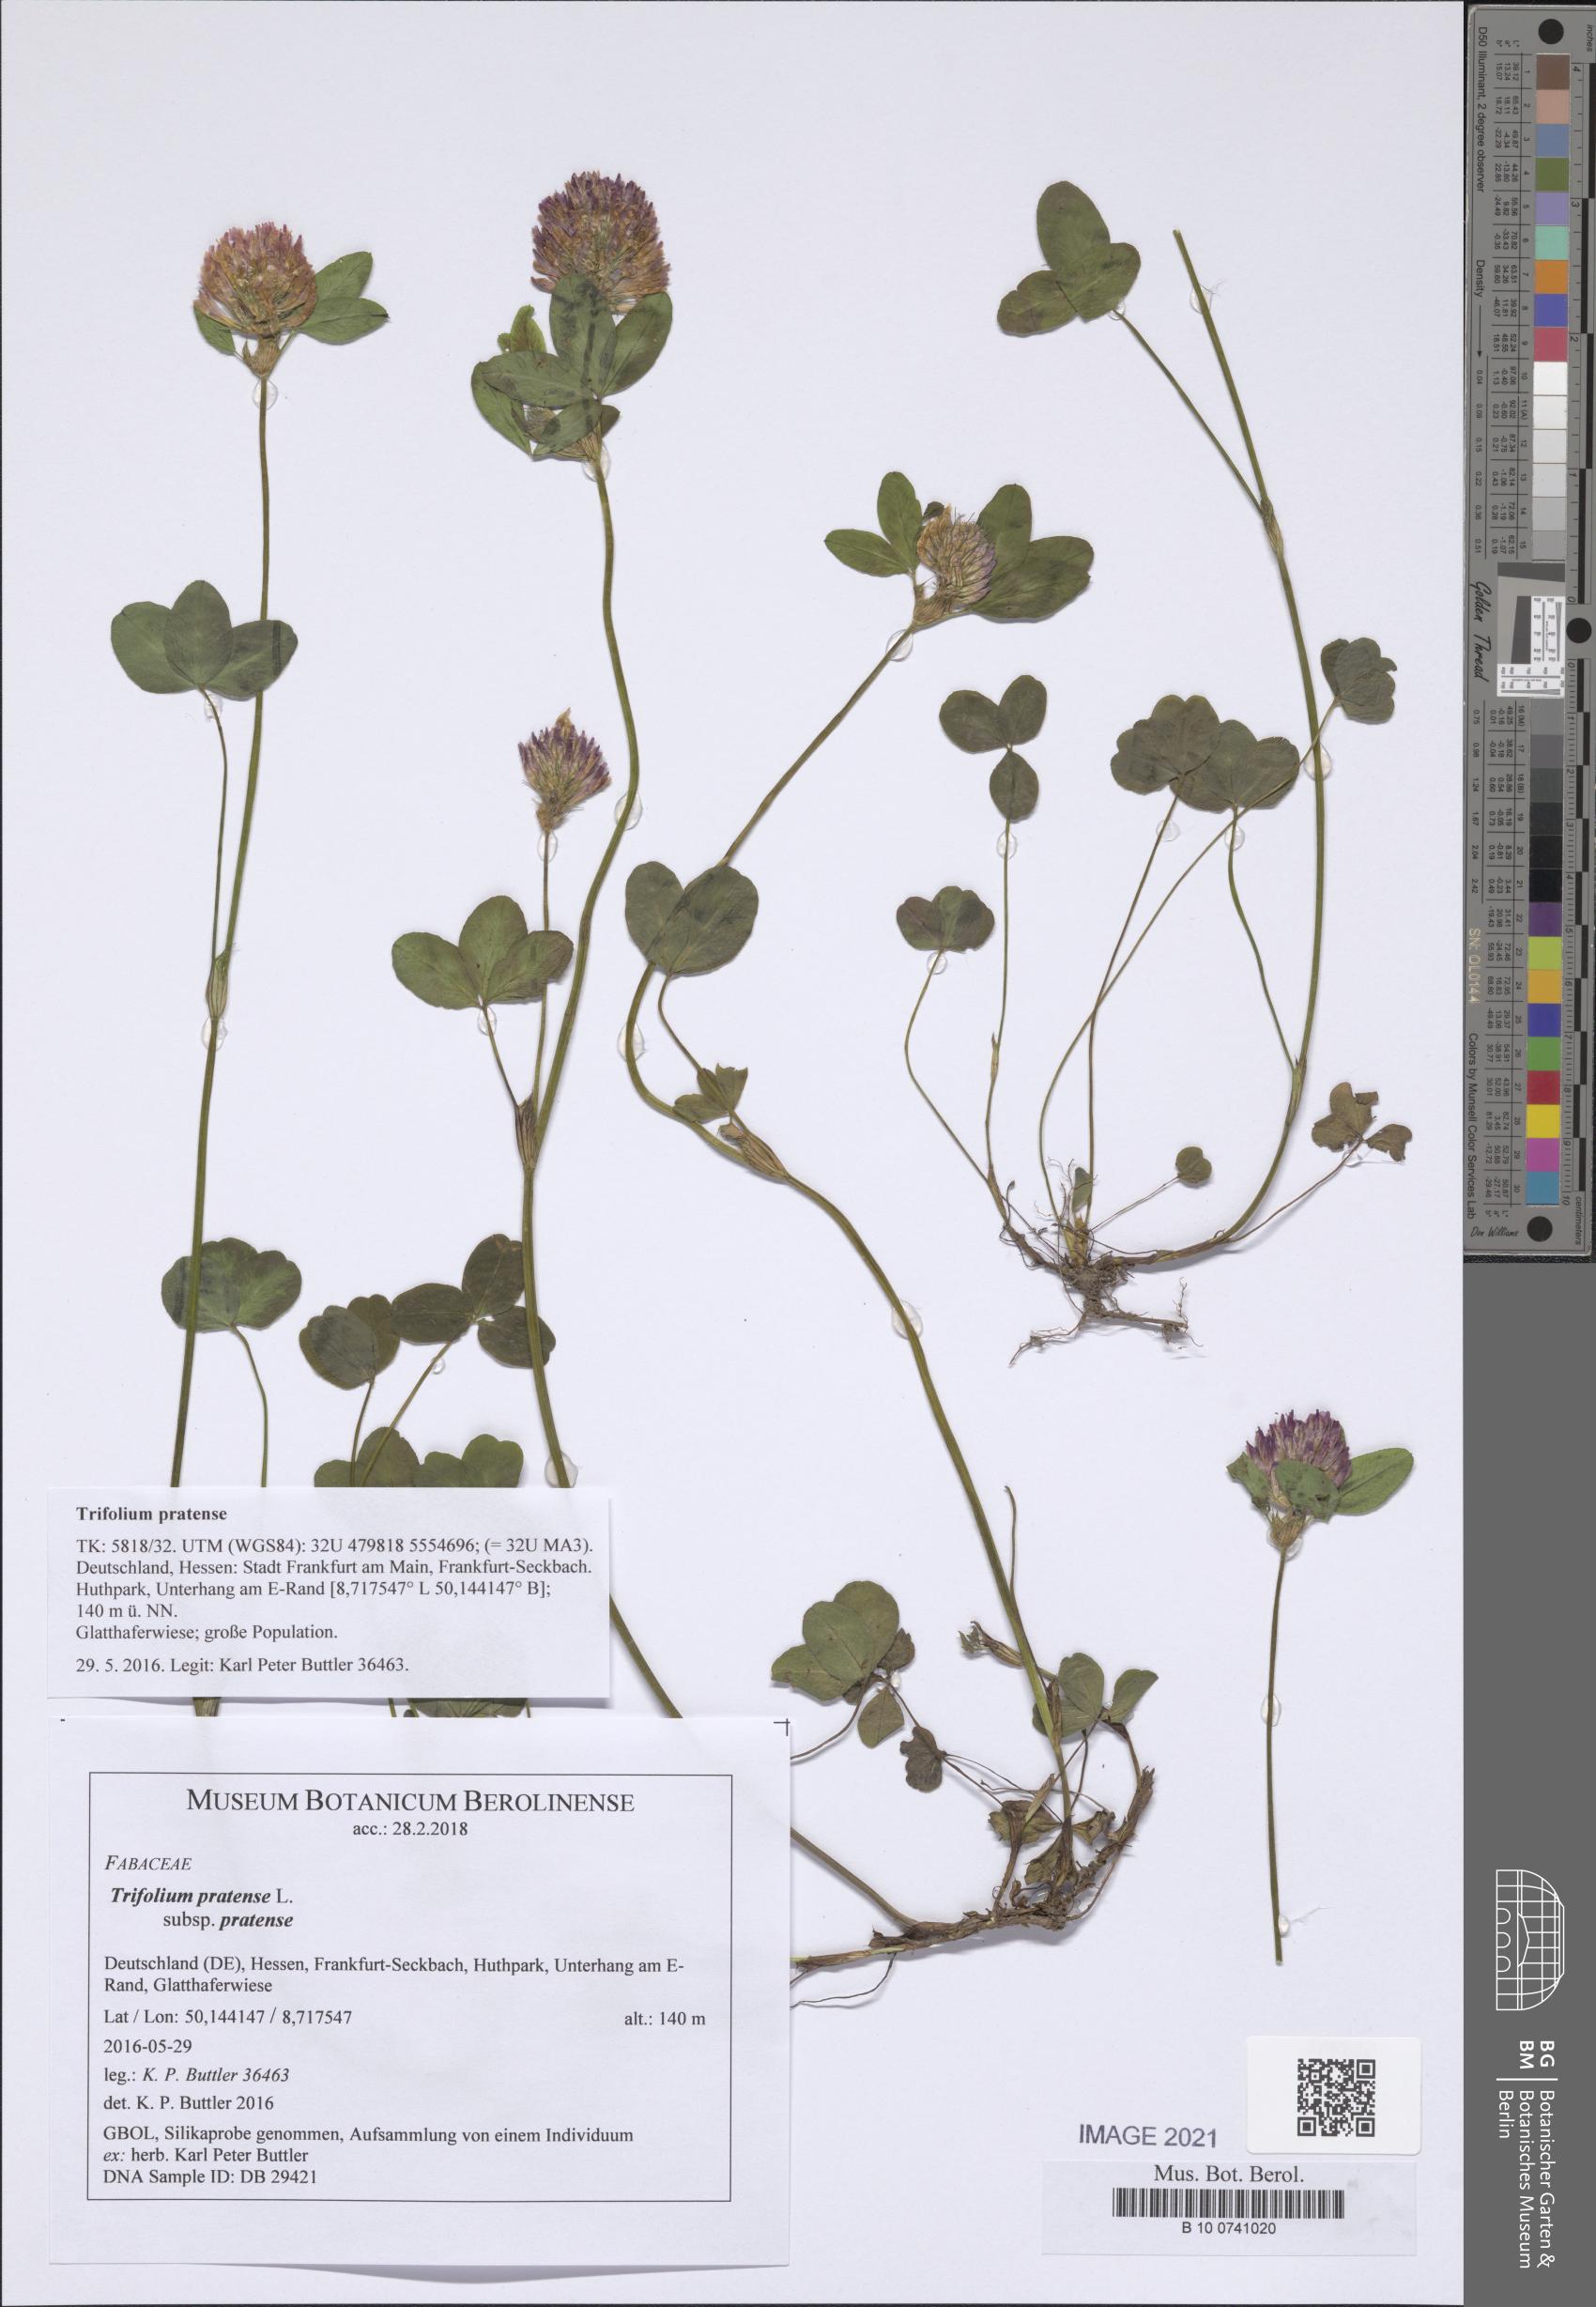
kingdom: Plantae
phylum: Tracheophyta
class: Magnoliopsida
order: Fabales
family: Fabaceae
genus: Trifolium
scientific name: Trifolium pratense
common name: Red clover
